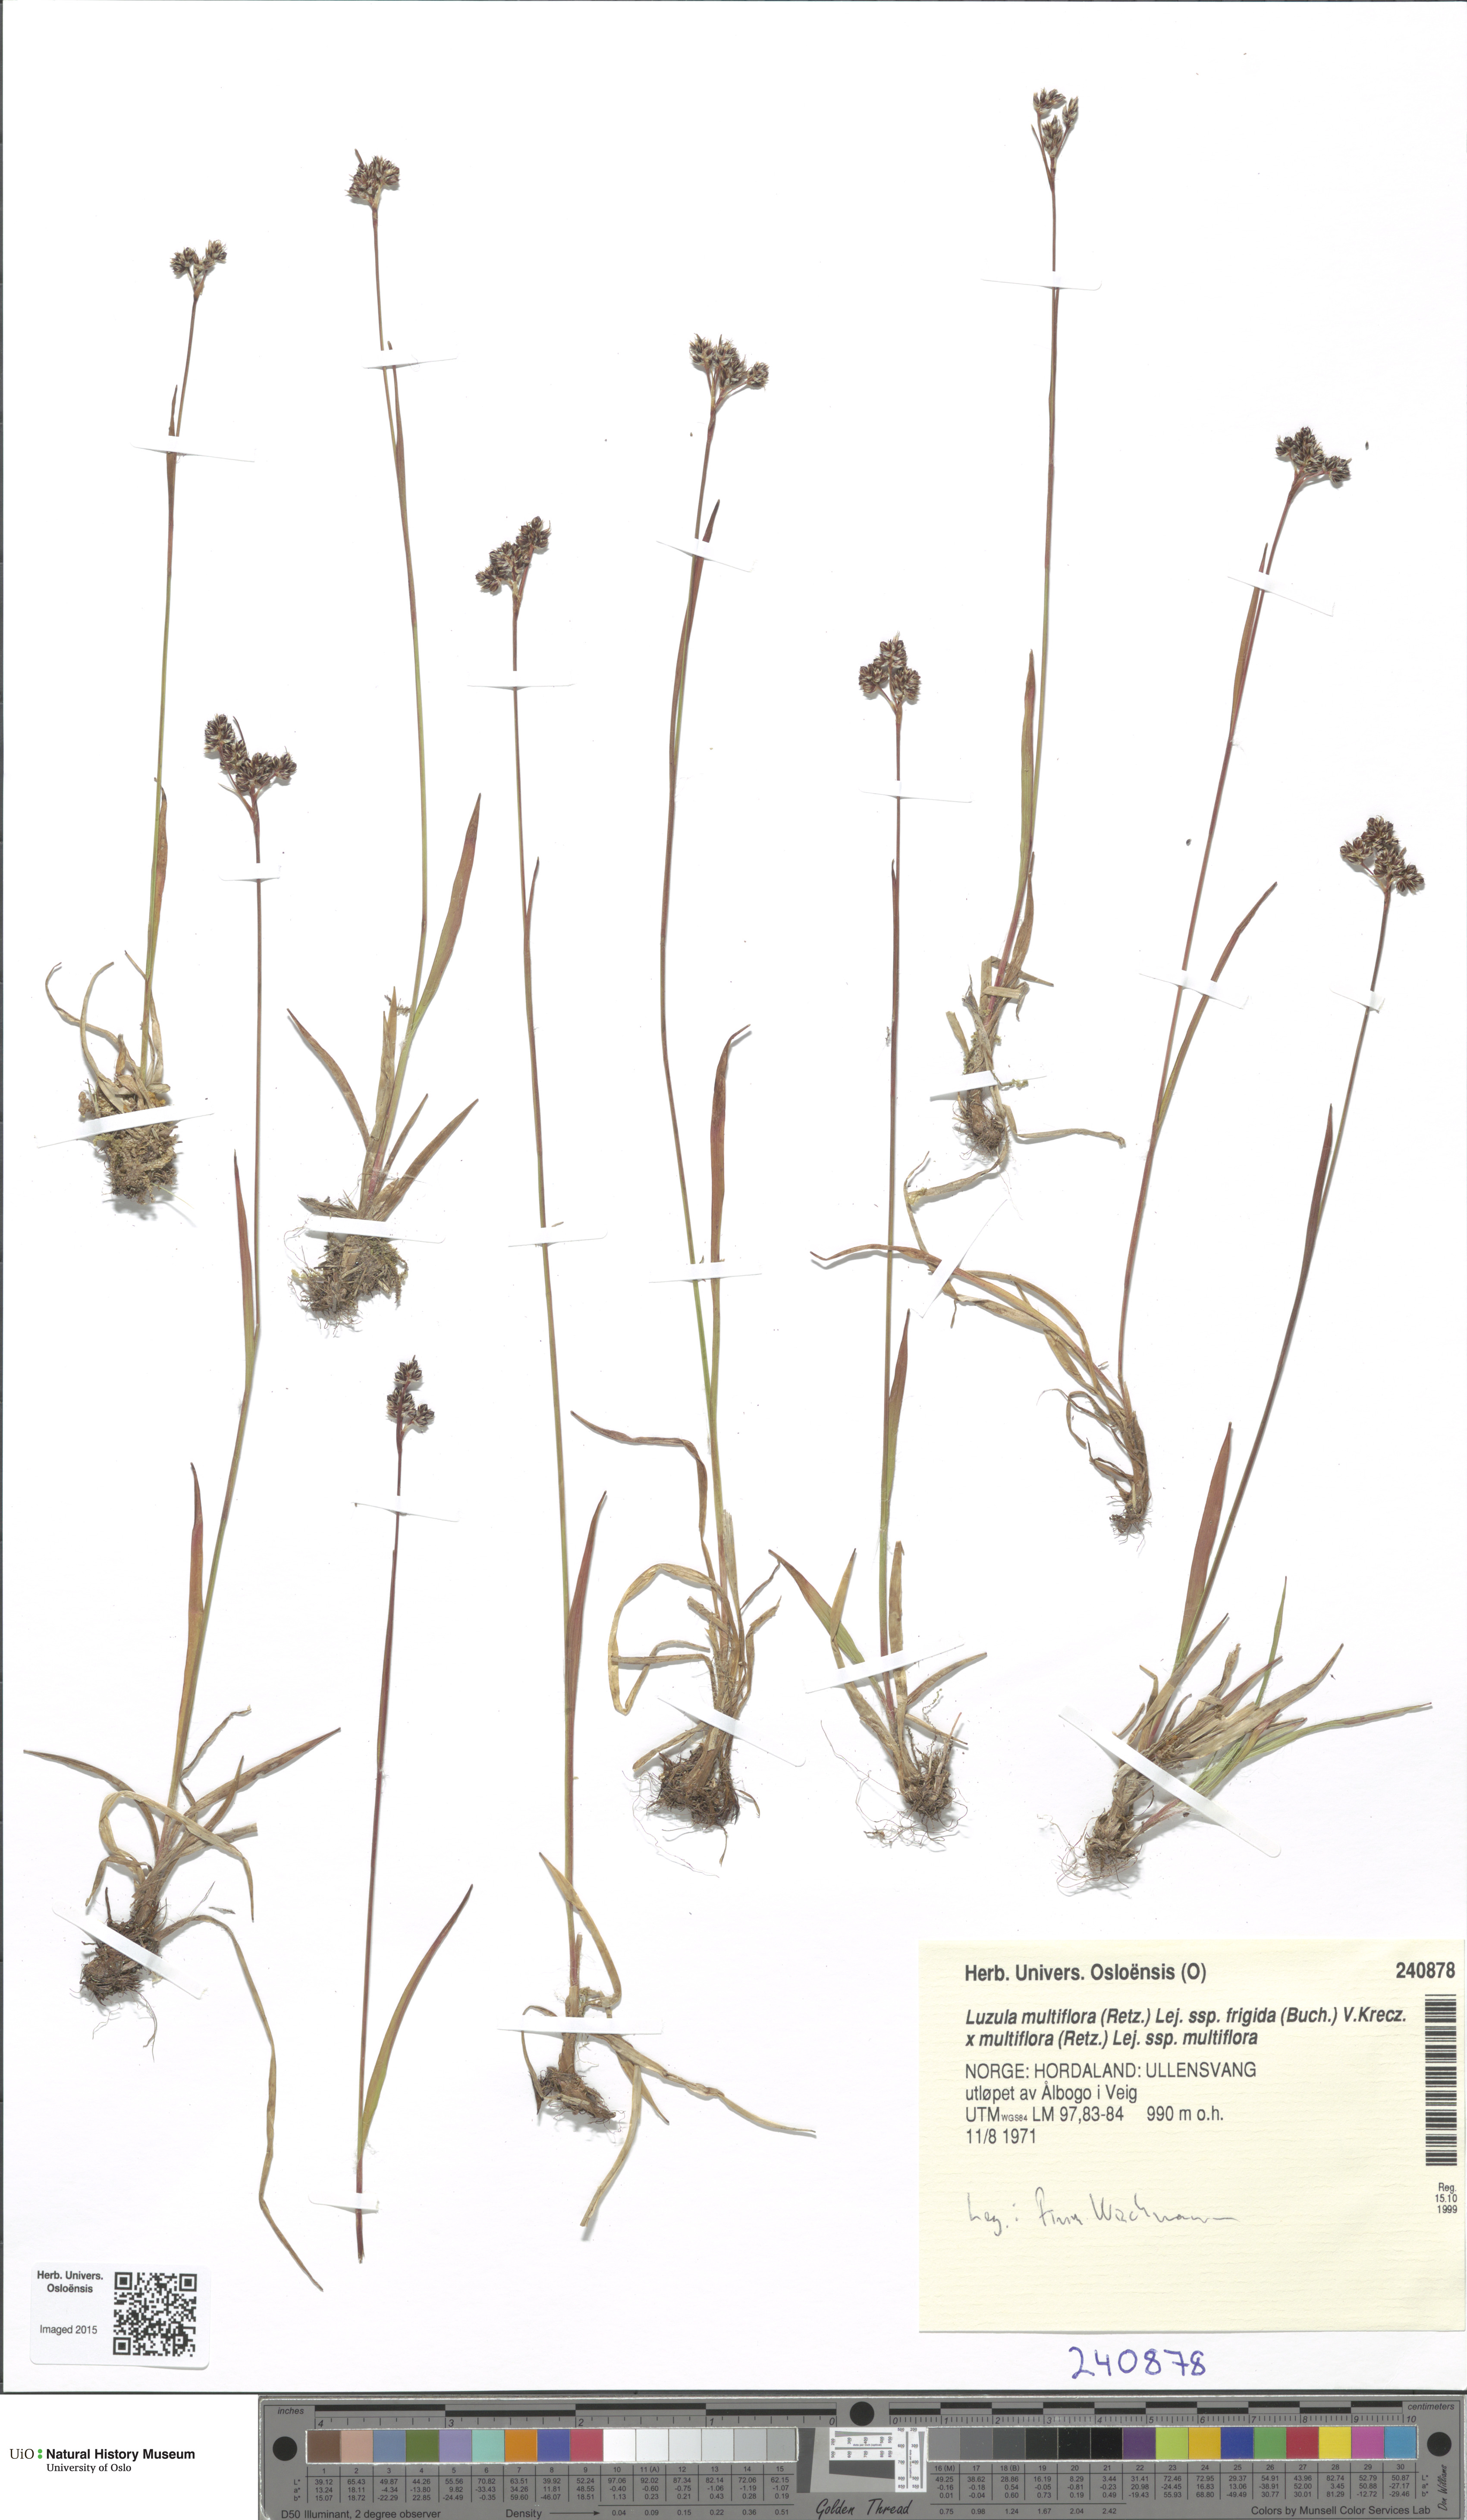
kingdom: Plantae
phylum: Tracheophyta
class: Liliopsida
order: Poales
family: Juncaceae
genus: Luzula
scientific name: Luzula
